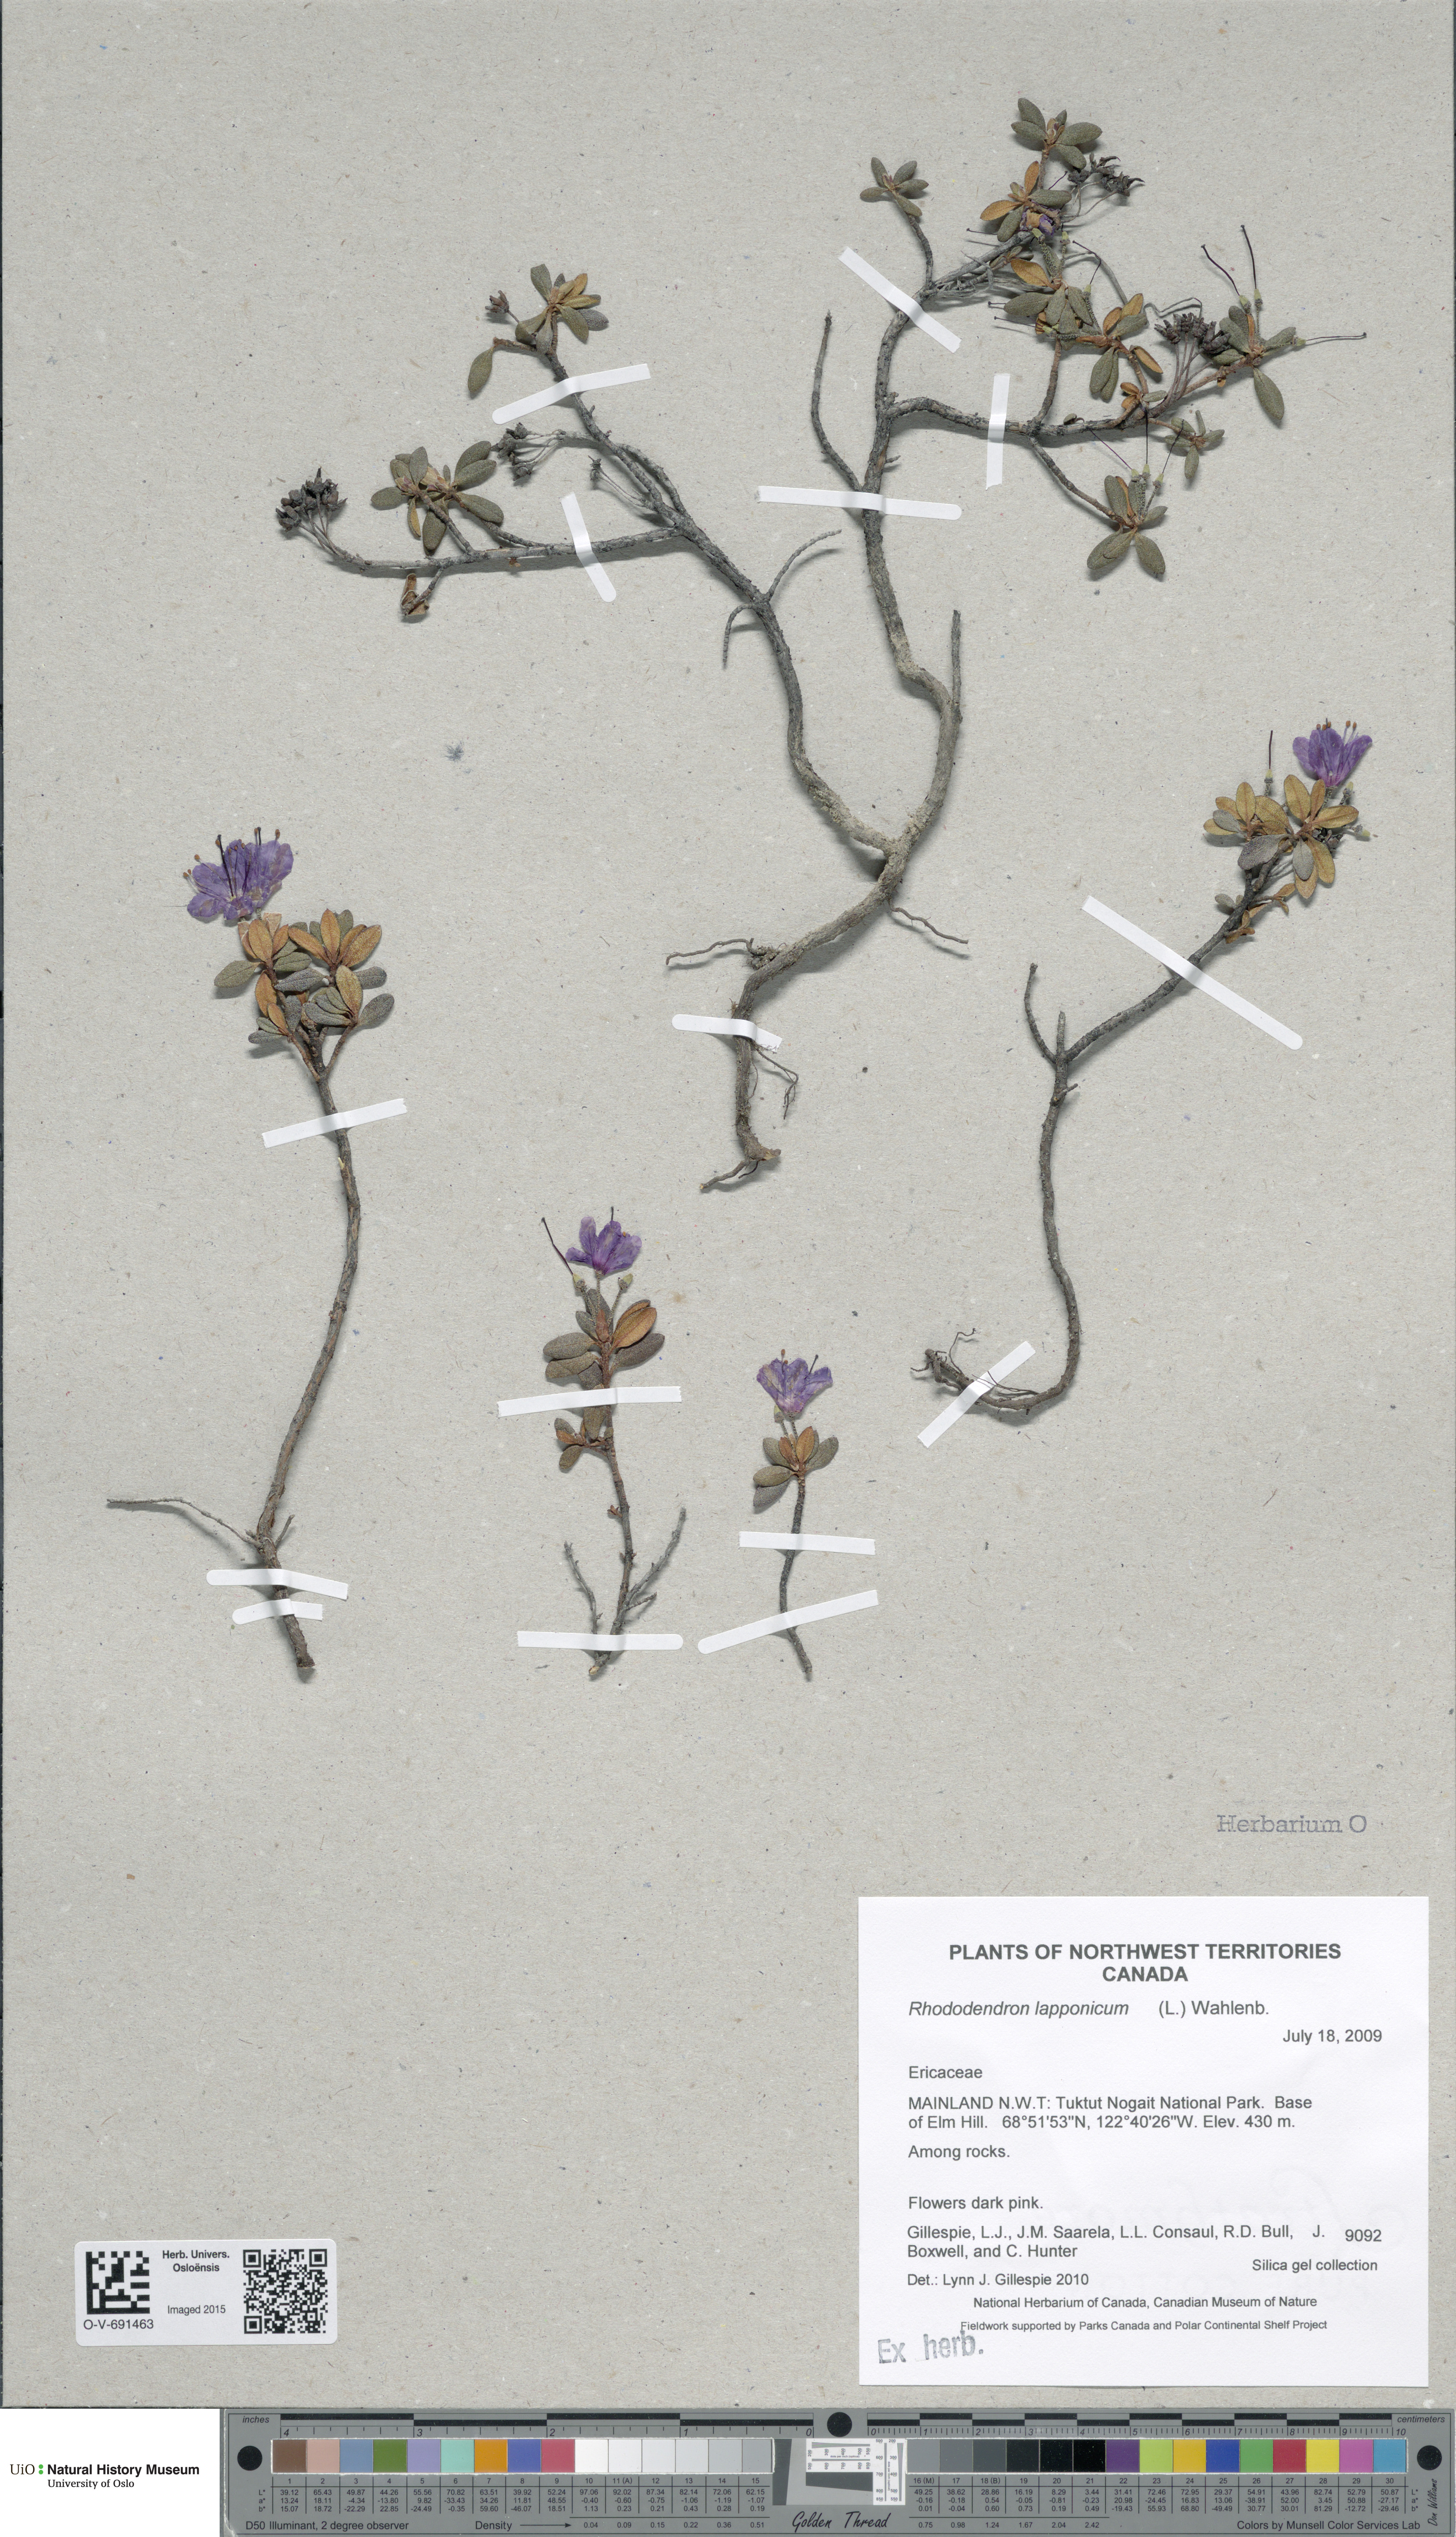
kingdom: Plantae
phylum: Tracheophyta
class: Magnoliopsida
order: Ericales
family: Ericaceae
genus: Rhododendron
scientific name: Rhododendron lapponicum
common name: Lapland rhododendron
